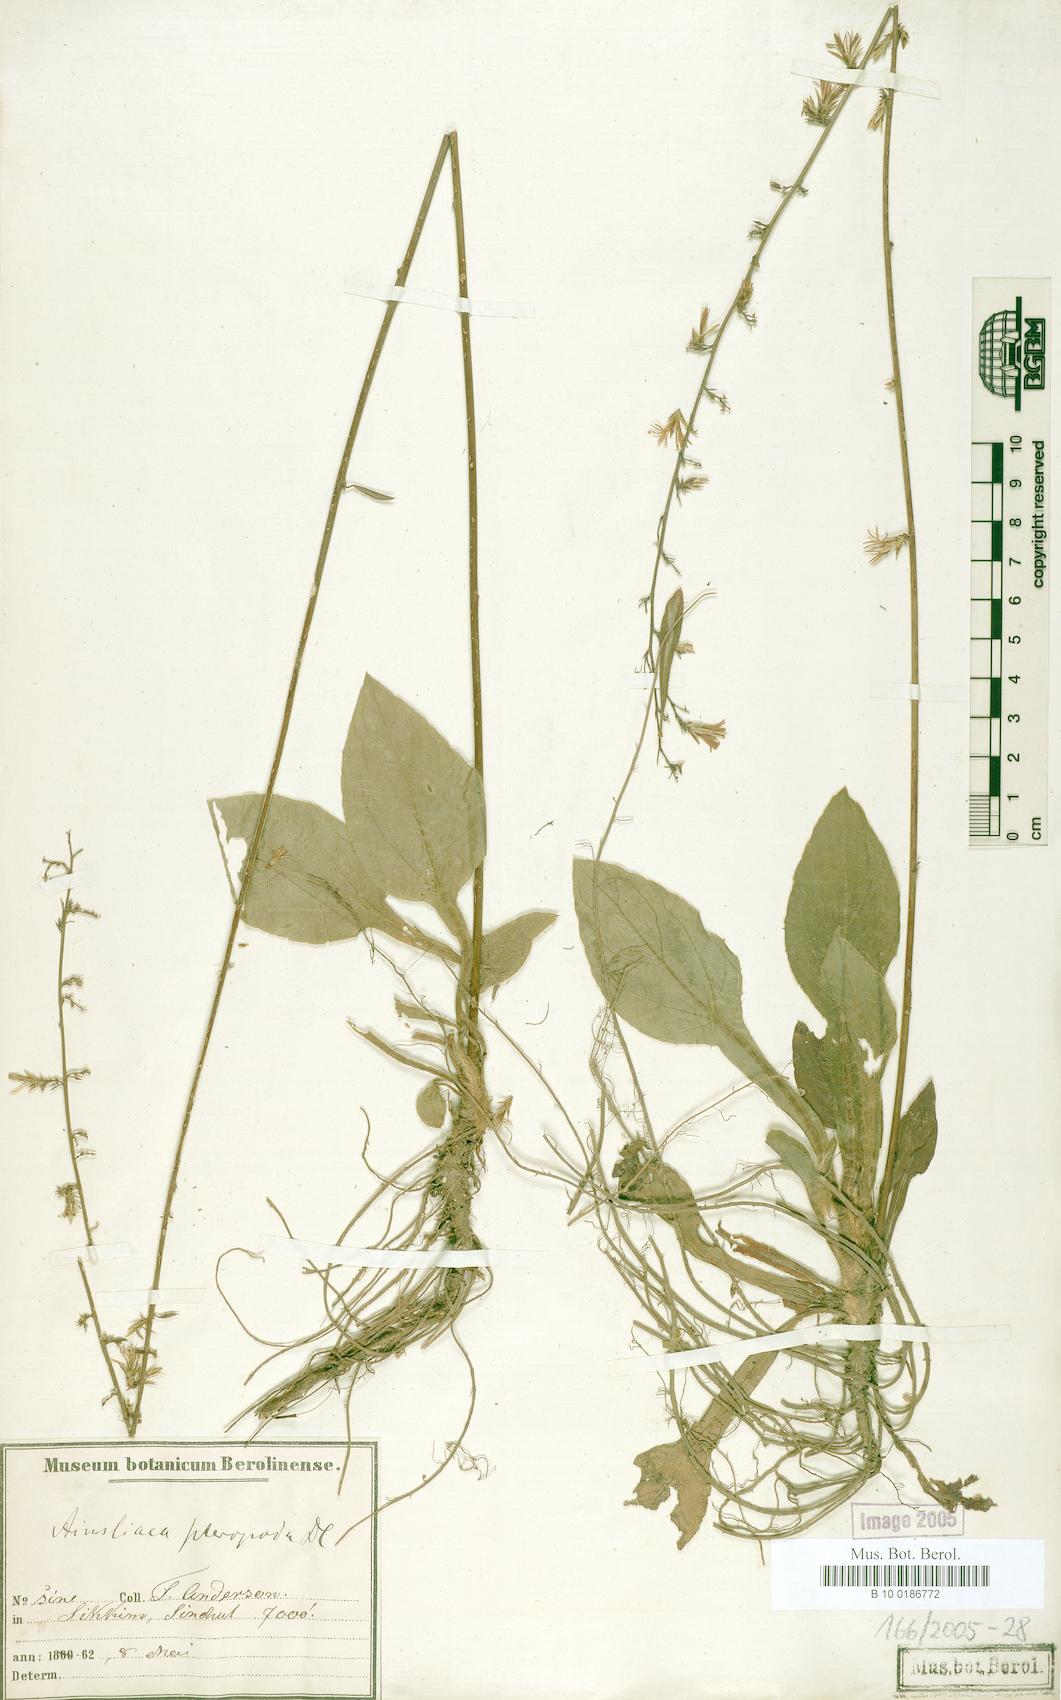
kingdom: Plantae
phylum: Tracheophyta
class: Magnoliopsida
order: Asterales
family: Asteraceae
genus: Ainsliaea
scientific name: Ainsliaea latifolia
